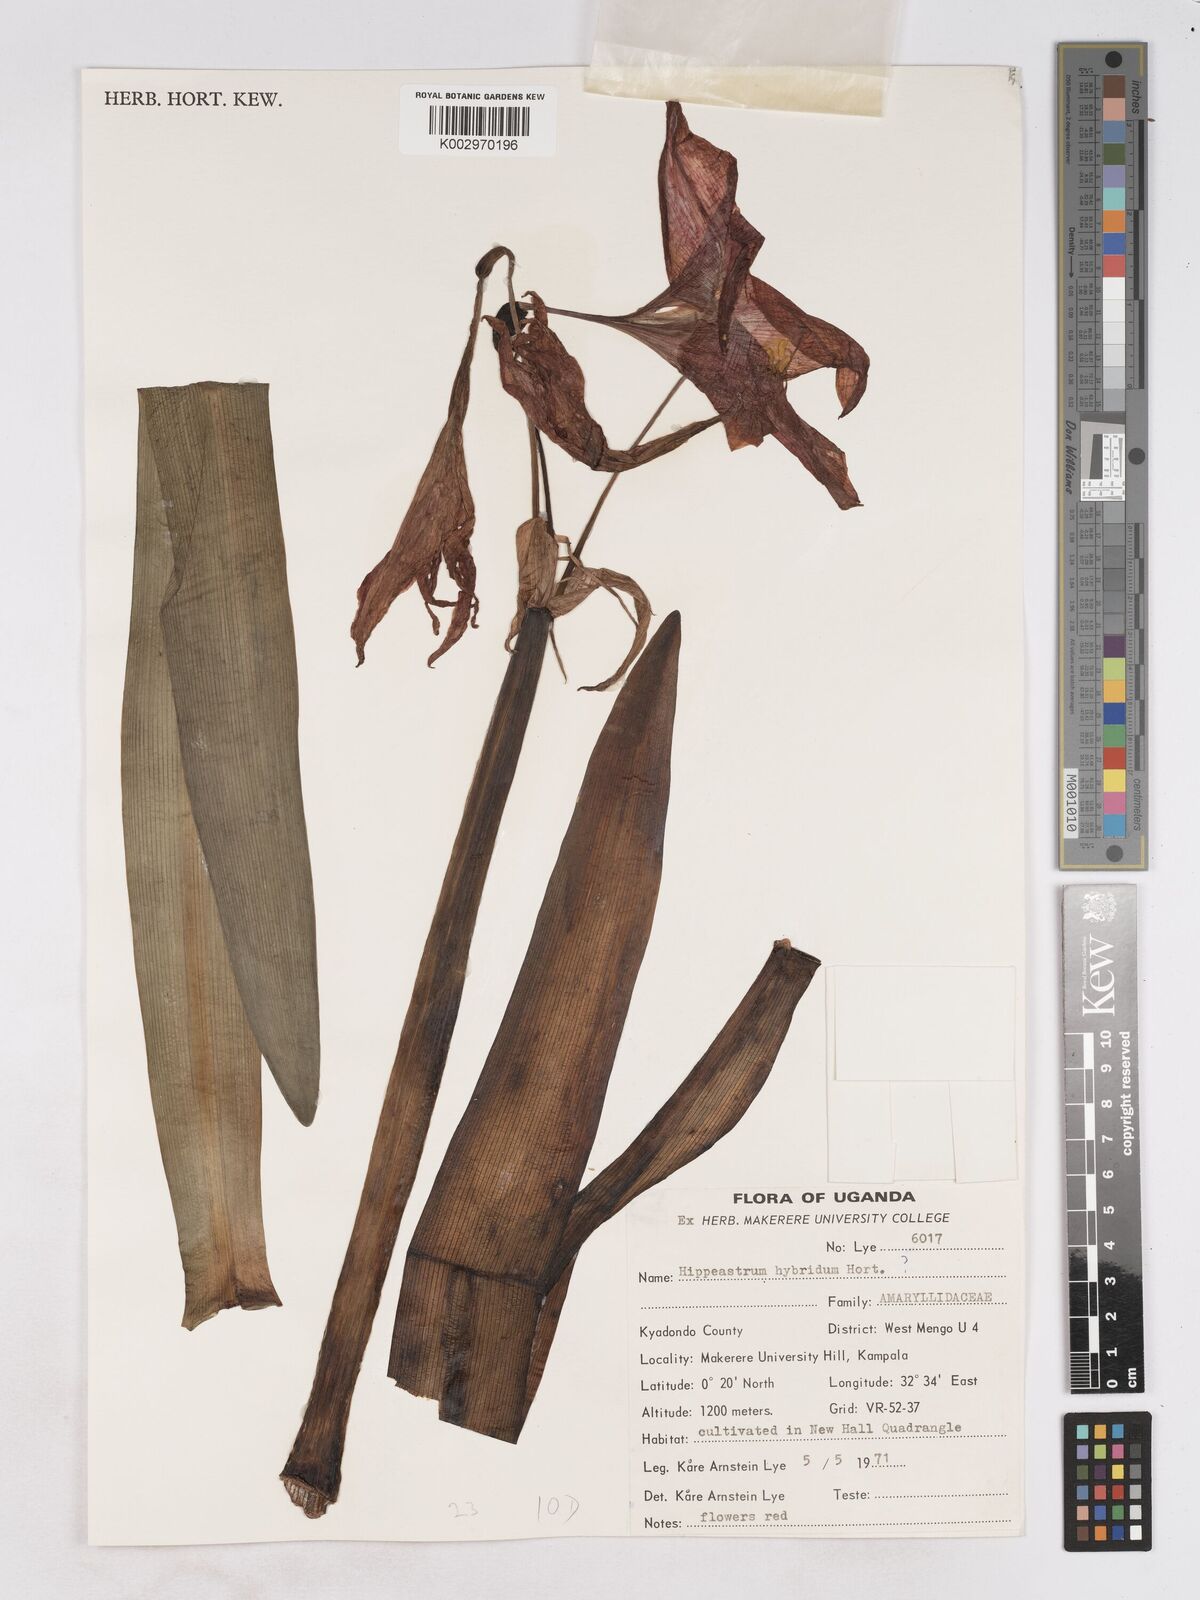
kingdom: Plantae
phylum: Tracheophyta
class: Liliopsida
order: Asparagales
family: Amaryllidaceae
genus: Hippeastrum
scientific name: Hippeastrum
